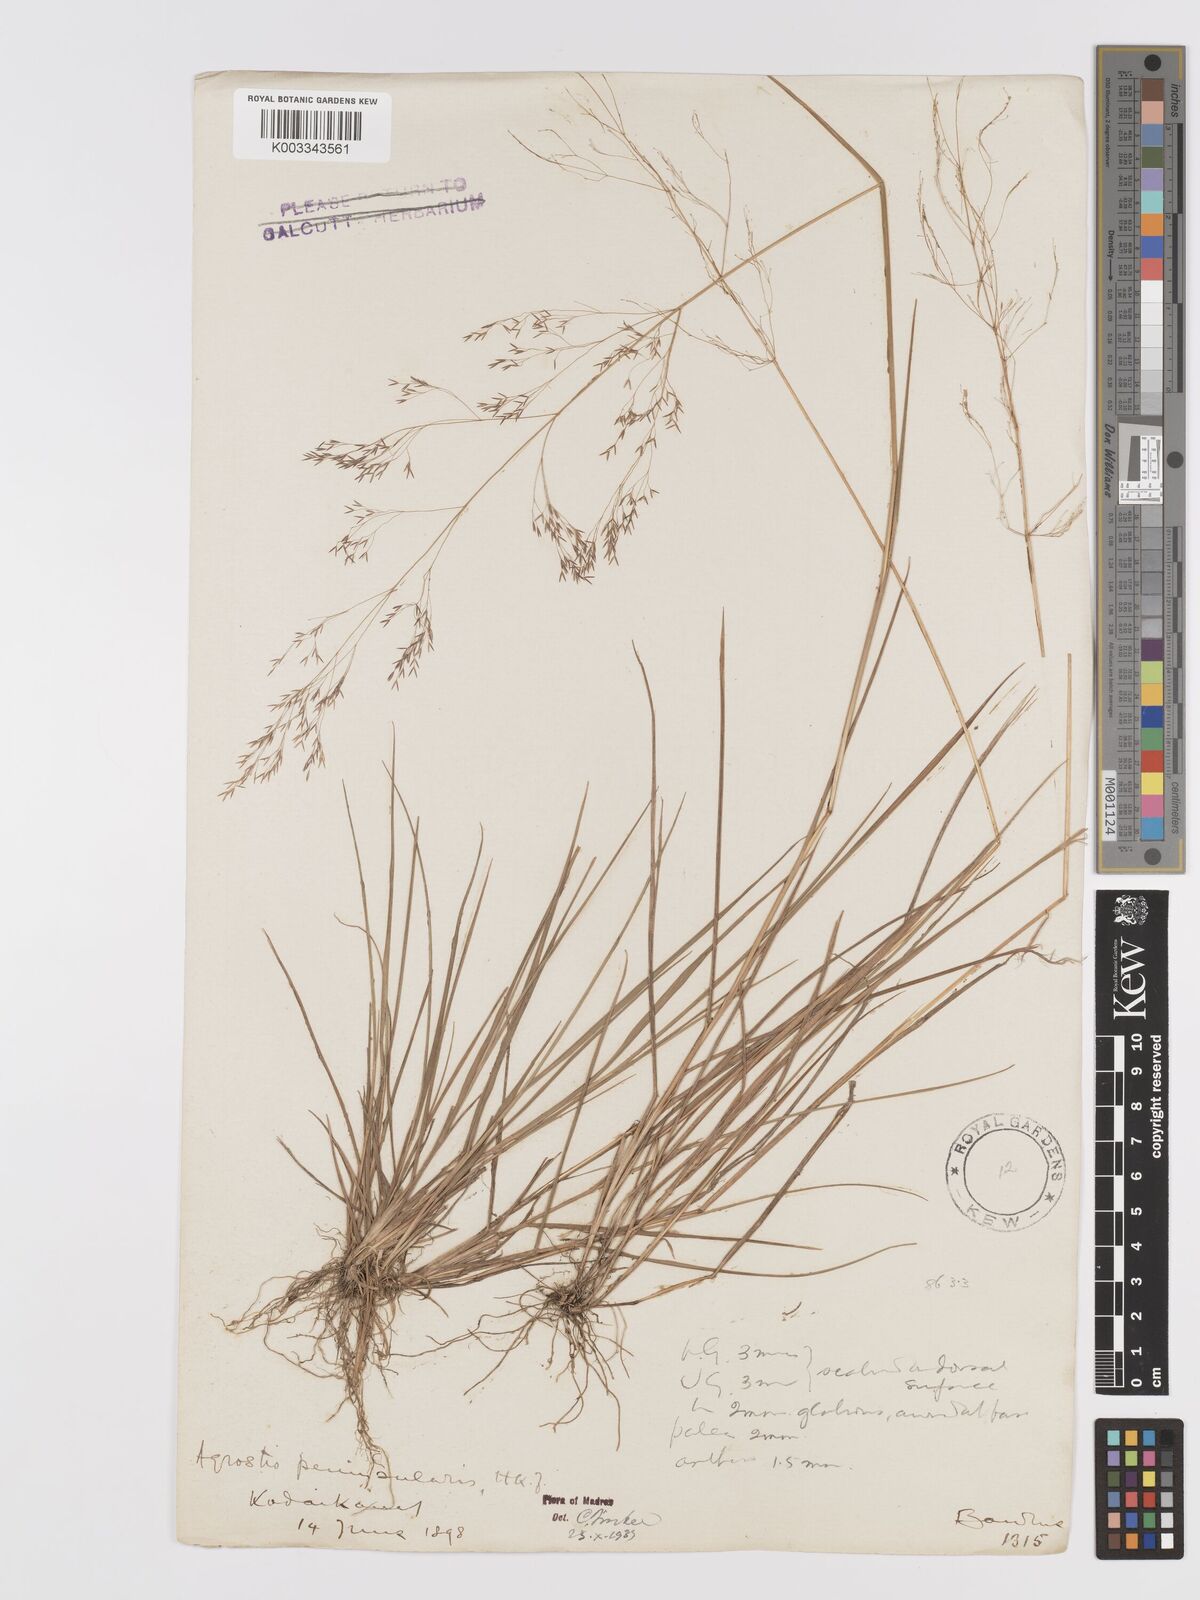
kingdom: Plantae
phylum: Tracheophyta
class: Liliopsida
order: Poales
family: Poaceae
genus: Agrostis
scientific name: Agrostis peninsularis
